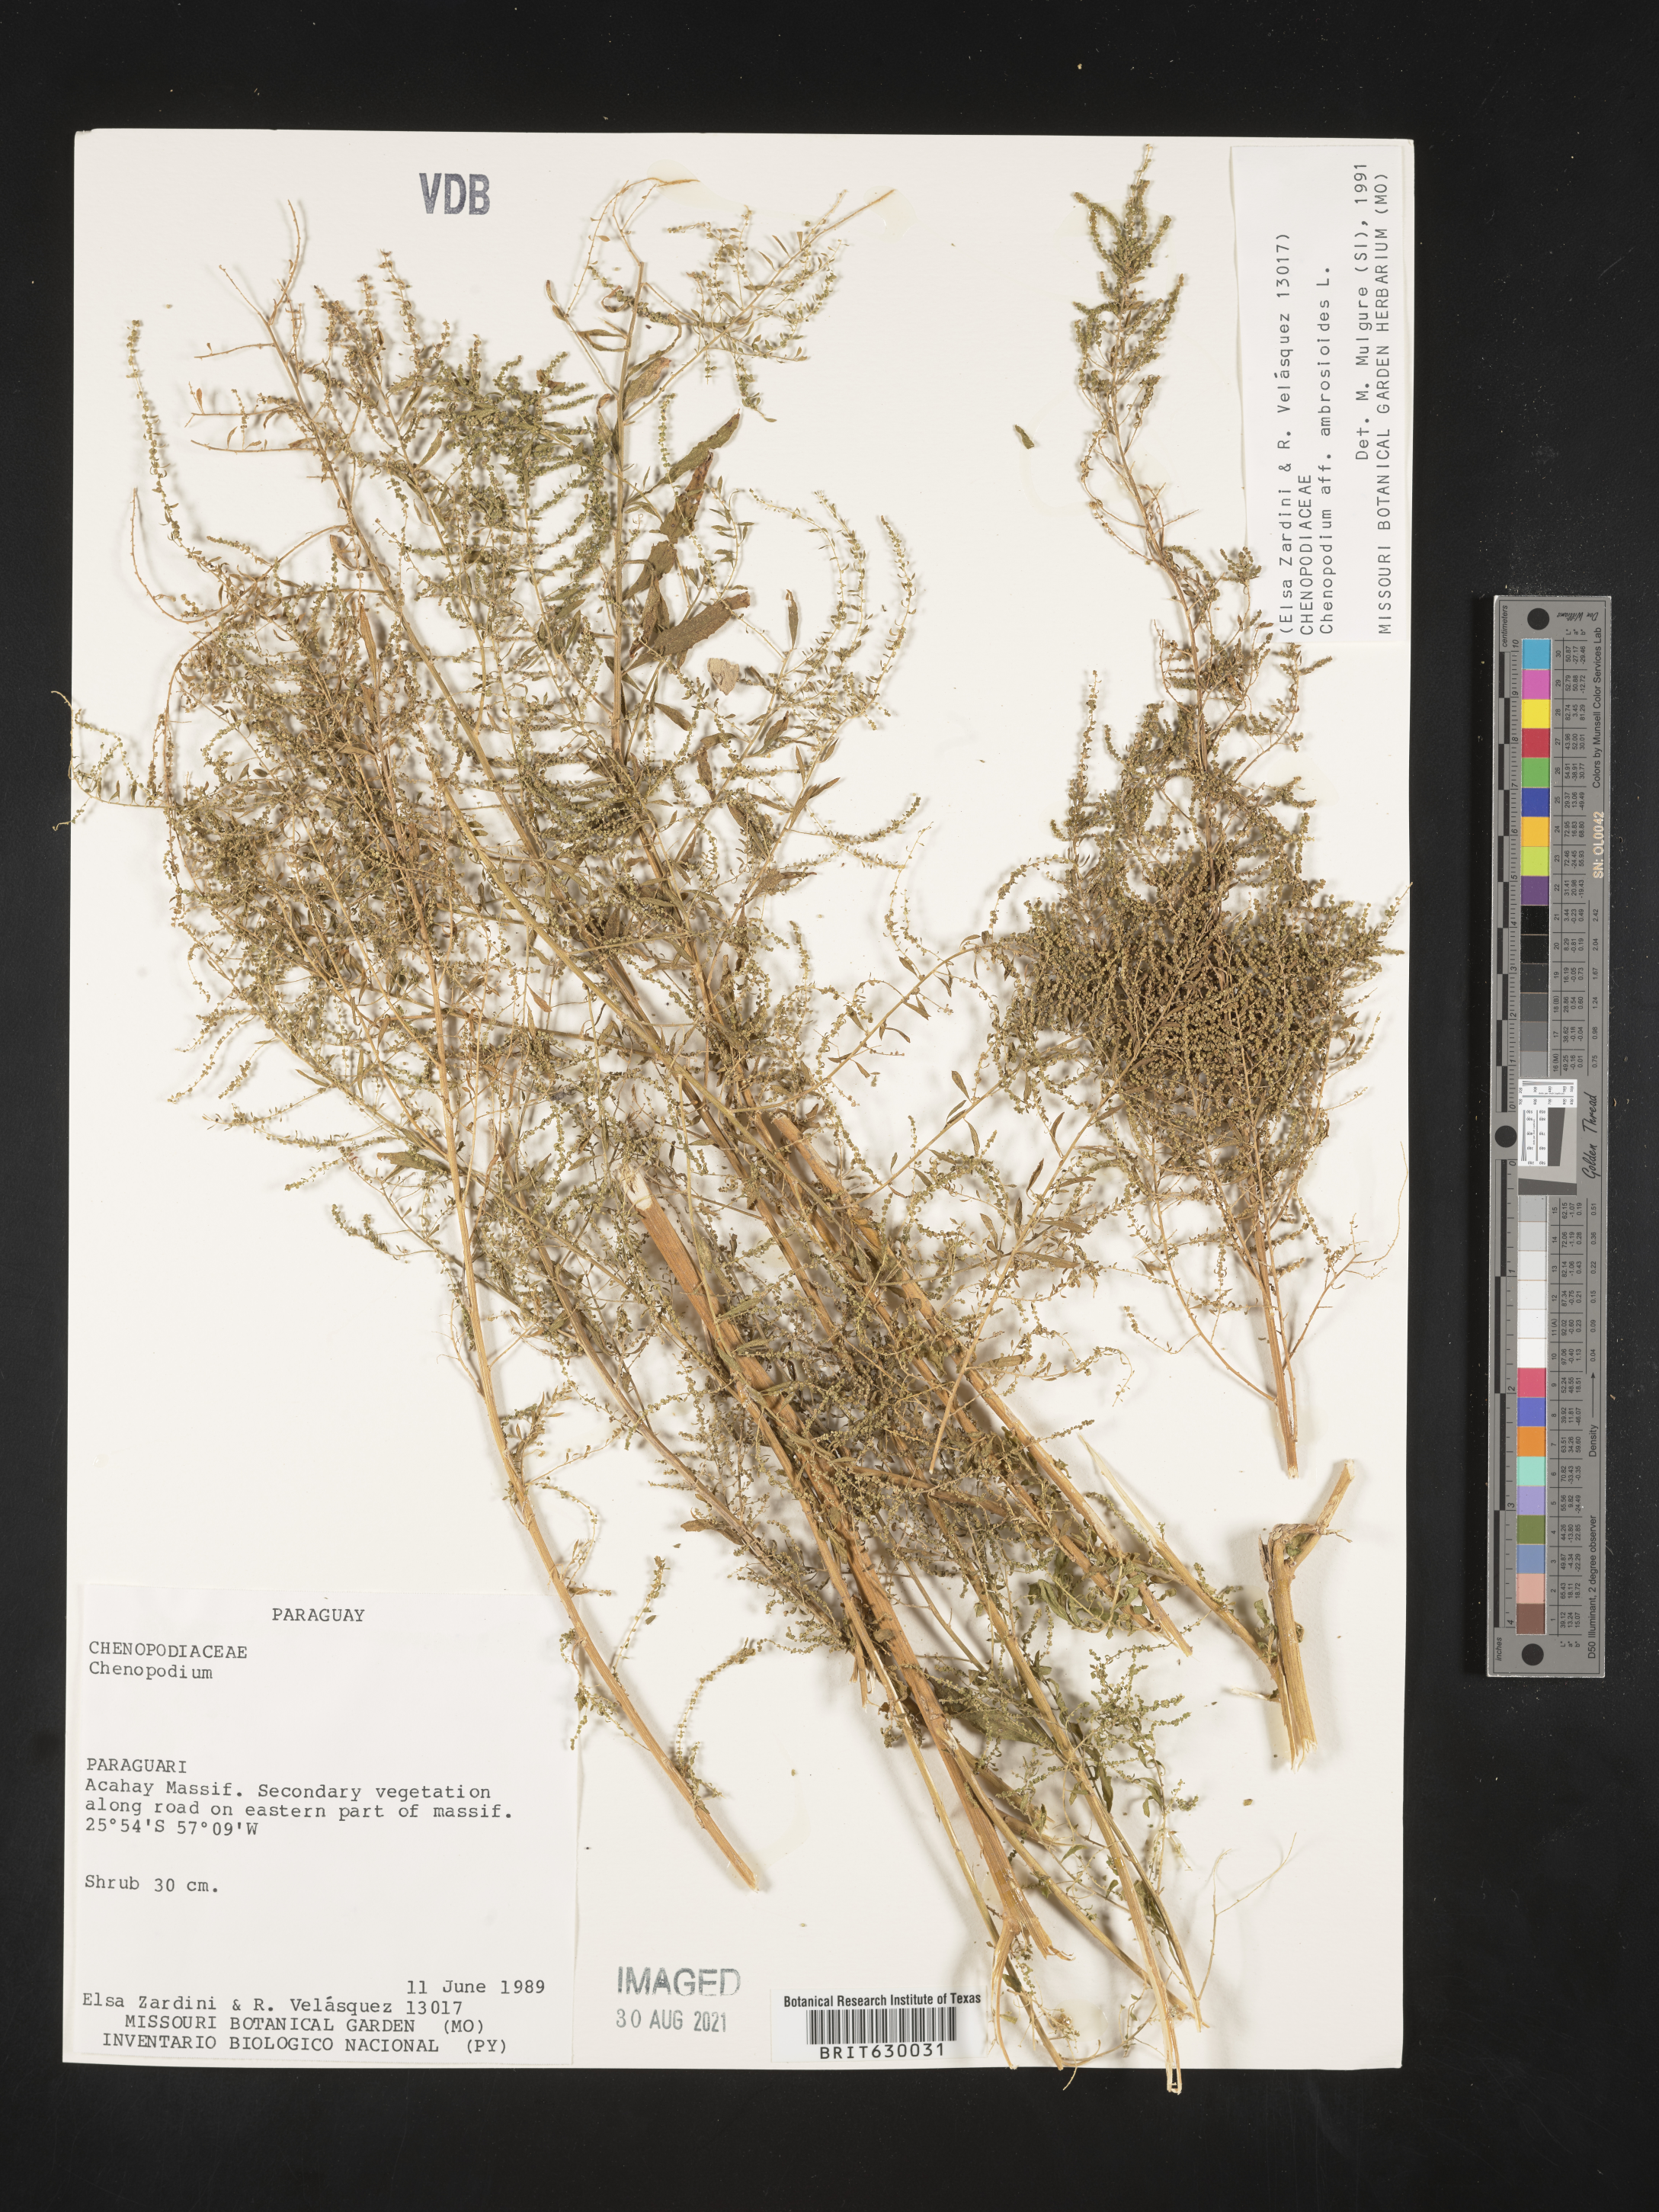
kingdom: Plantae
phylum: Tracheophyta
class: Magnoliopsida
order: Caryophyllales
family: Amaranthaceae
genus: Dysphania
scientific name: Dysphania ambrosioides
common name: Wormseed
